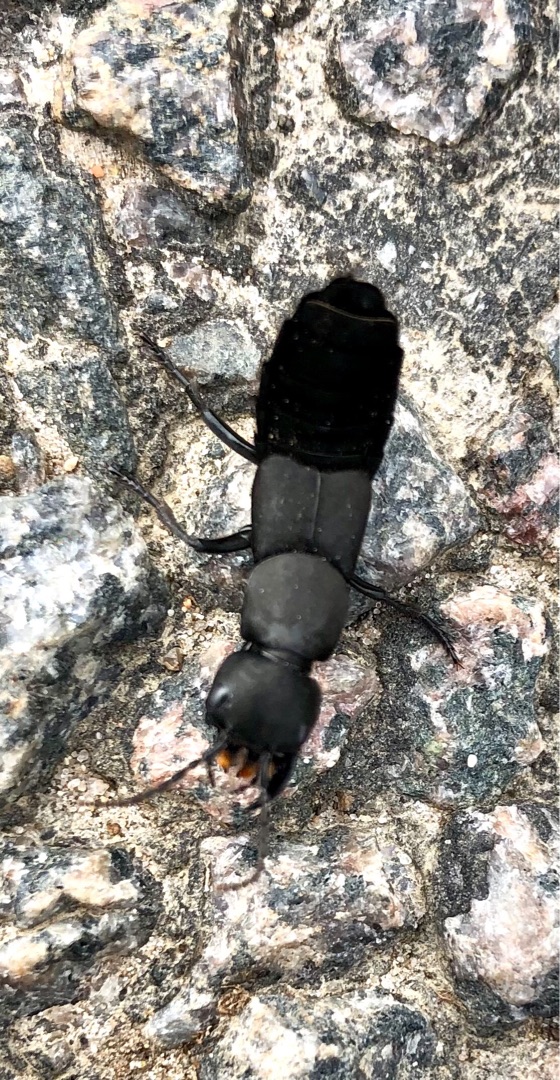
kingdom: Animalia
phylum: Arthropoda
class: Insecta
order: Coleoptera
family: Staphylinidae
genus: Ocypus
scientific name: Ocypus olens
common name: Stor rovbille
